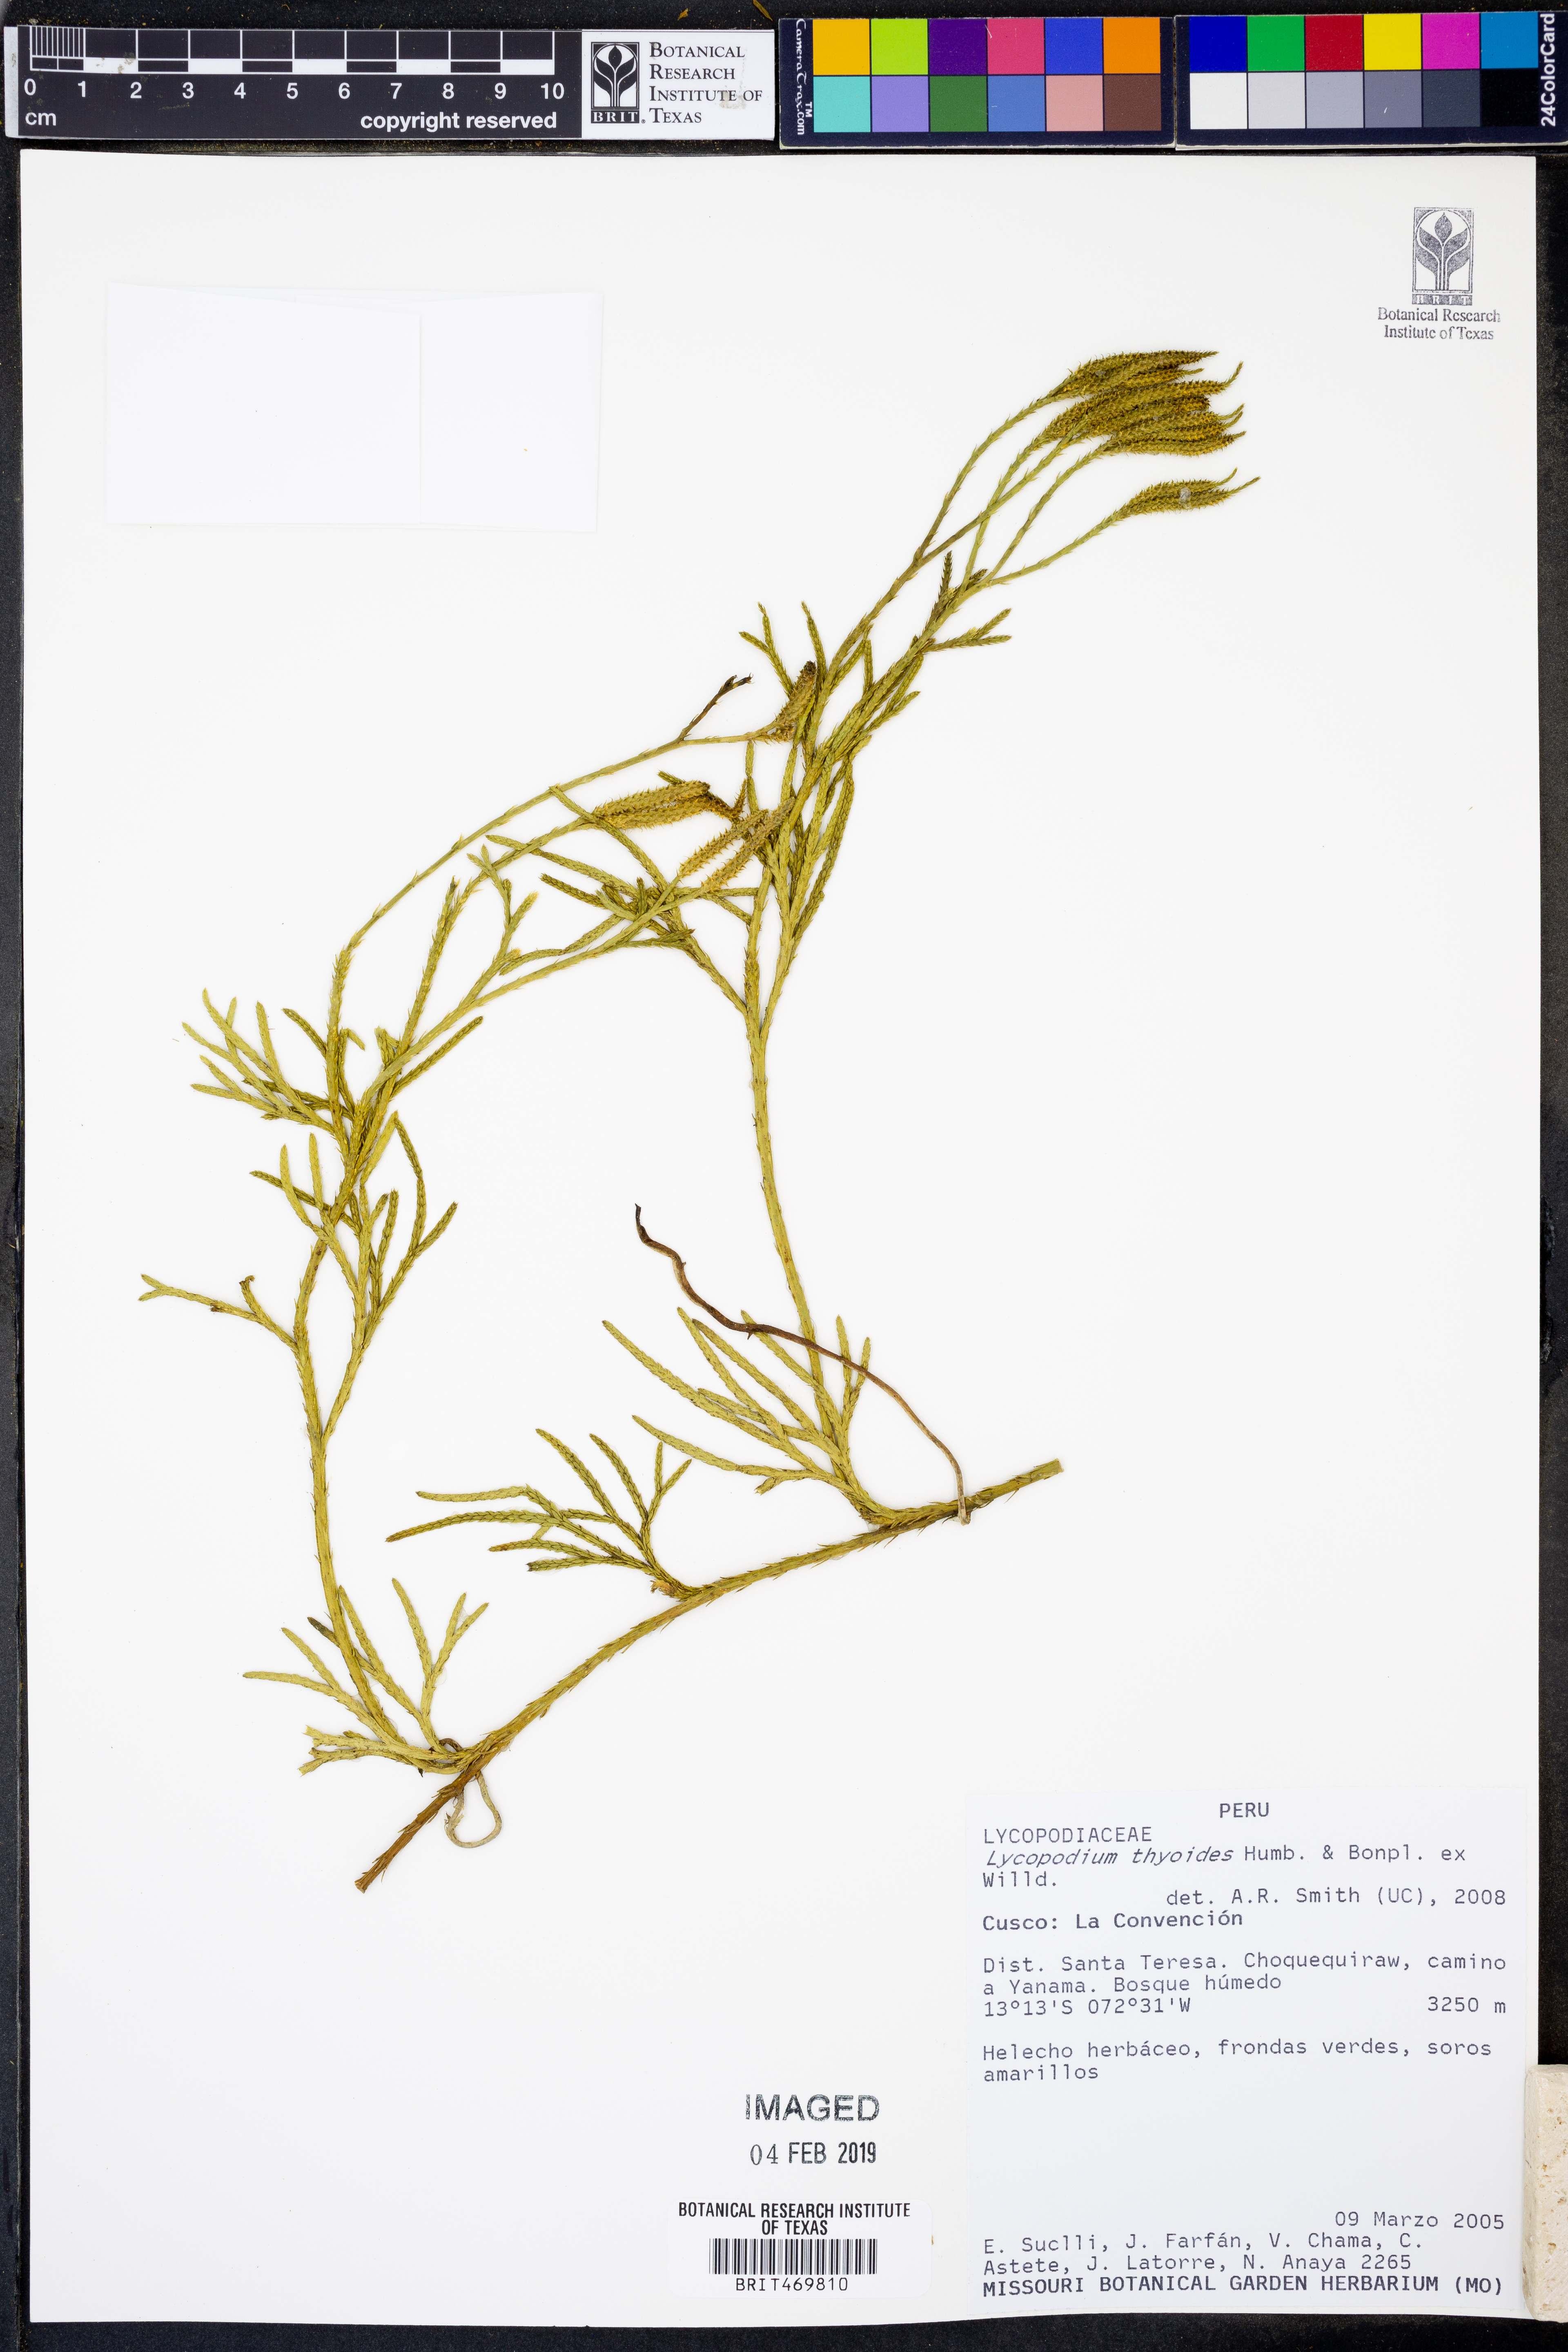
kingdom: Plantae
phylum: Tracheophyta
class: Lycopodiopsida
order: Lycopodiales
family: Lycopodiaceae
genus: Diphasiastrum
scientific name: Diphasiastrum thyoides
